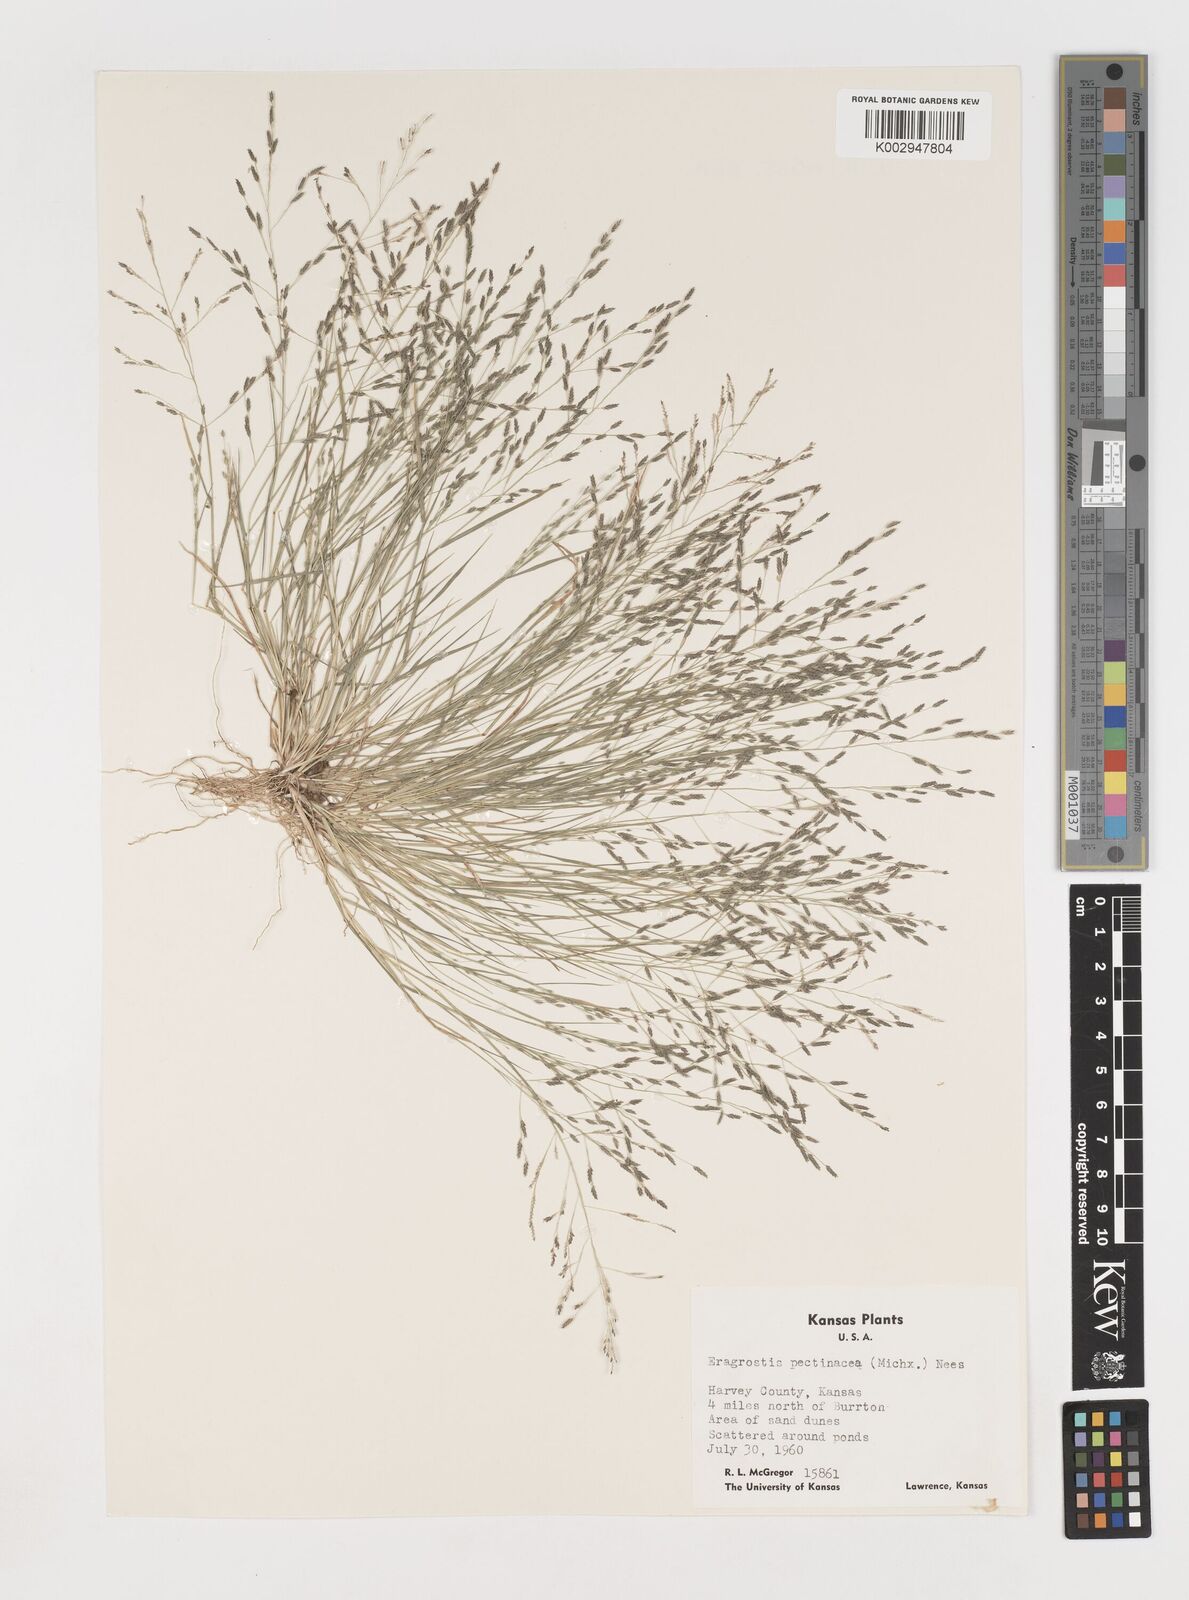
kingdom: Plantae
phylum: Tracheophyta
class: Liliopsida
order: Poales
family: Poaceae
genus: Eragrostis
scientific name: Eragrostis pectinacea
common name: Tufted lovegrass
